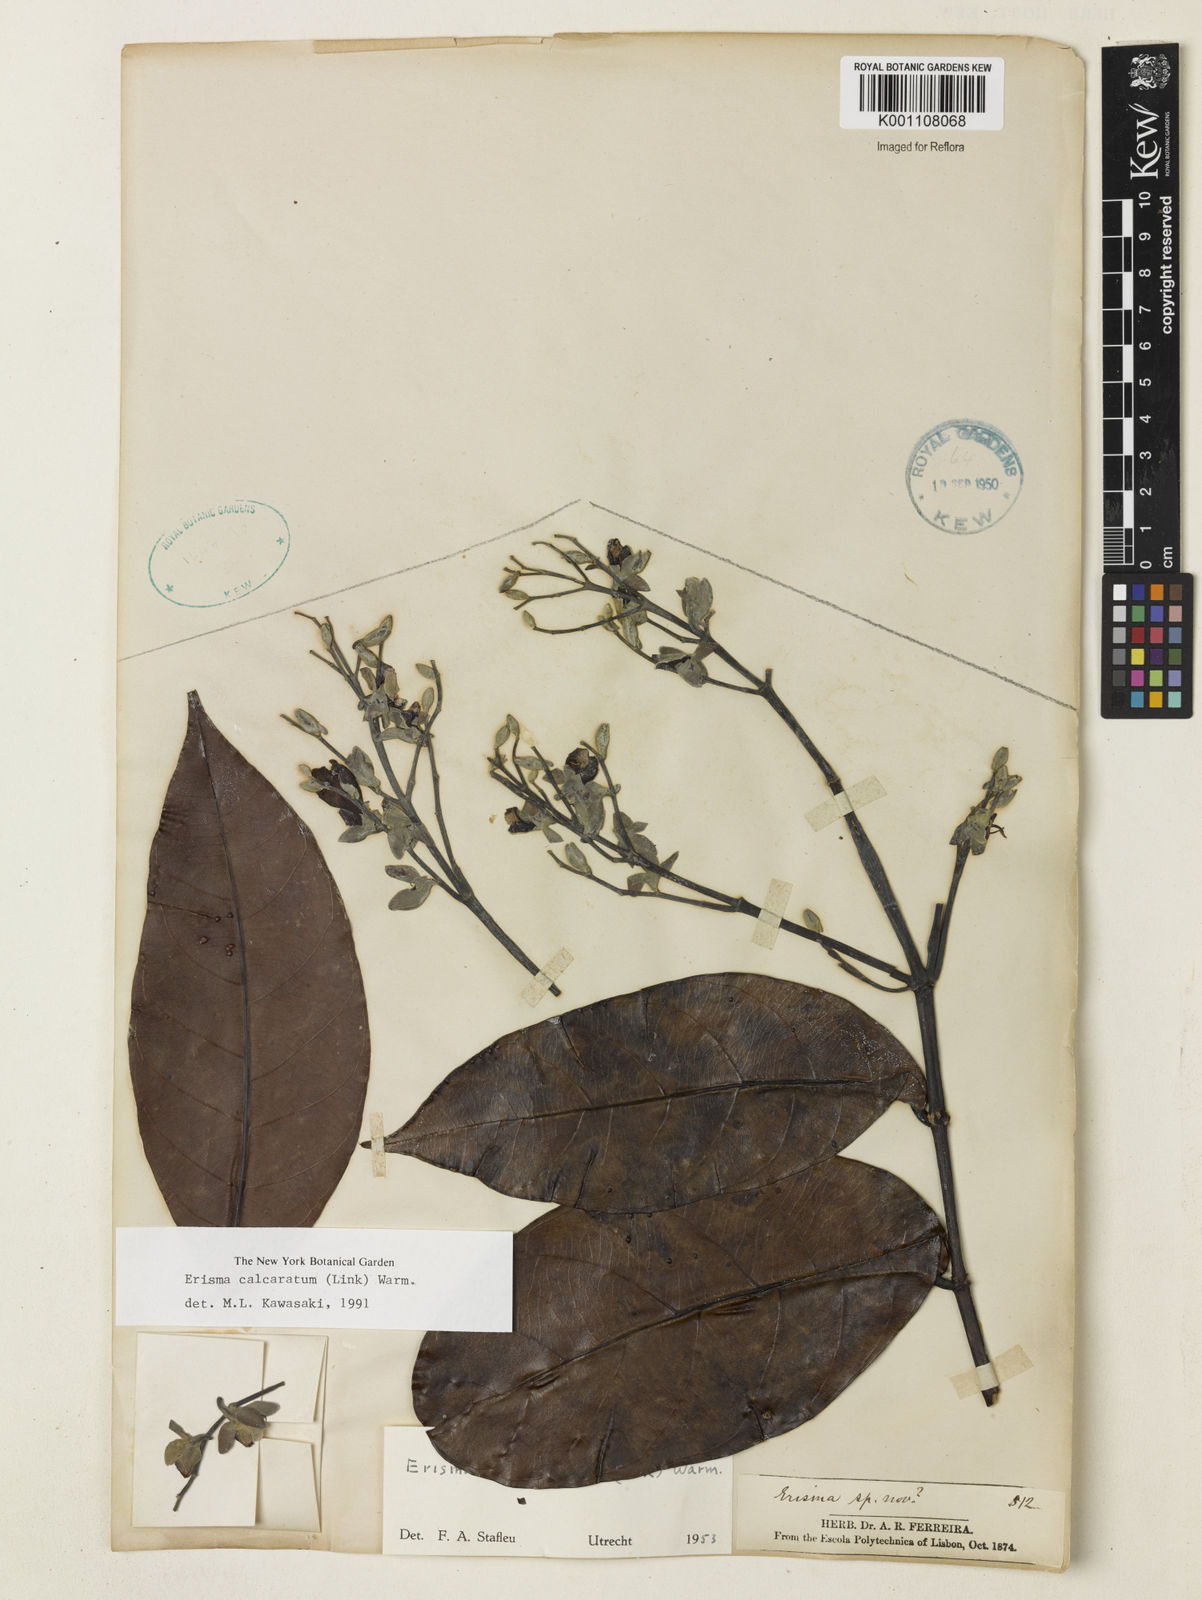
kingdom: Plantae
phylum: Tracheophyta
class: Magnoliopsida
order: Myrtales
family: Vochysiaceae
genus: Erisma
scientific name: Erisma calcaratum
